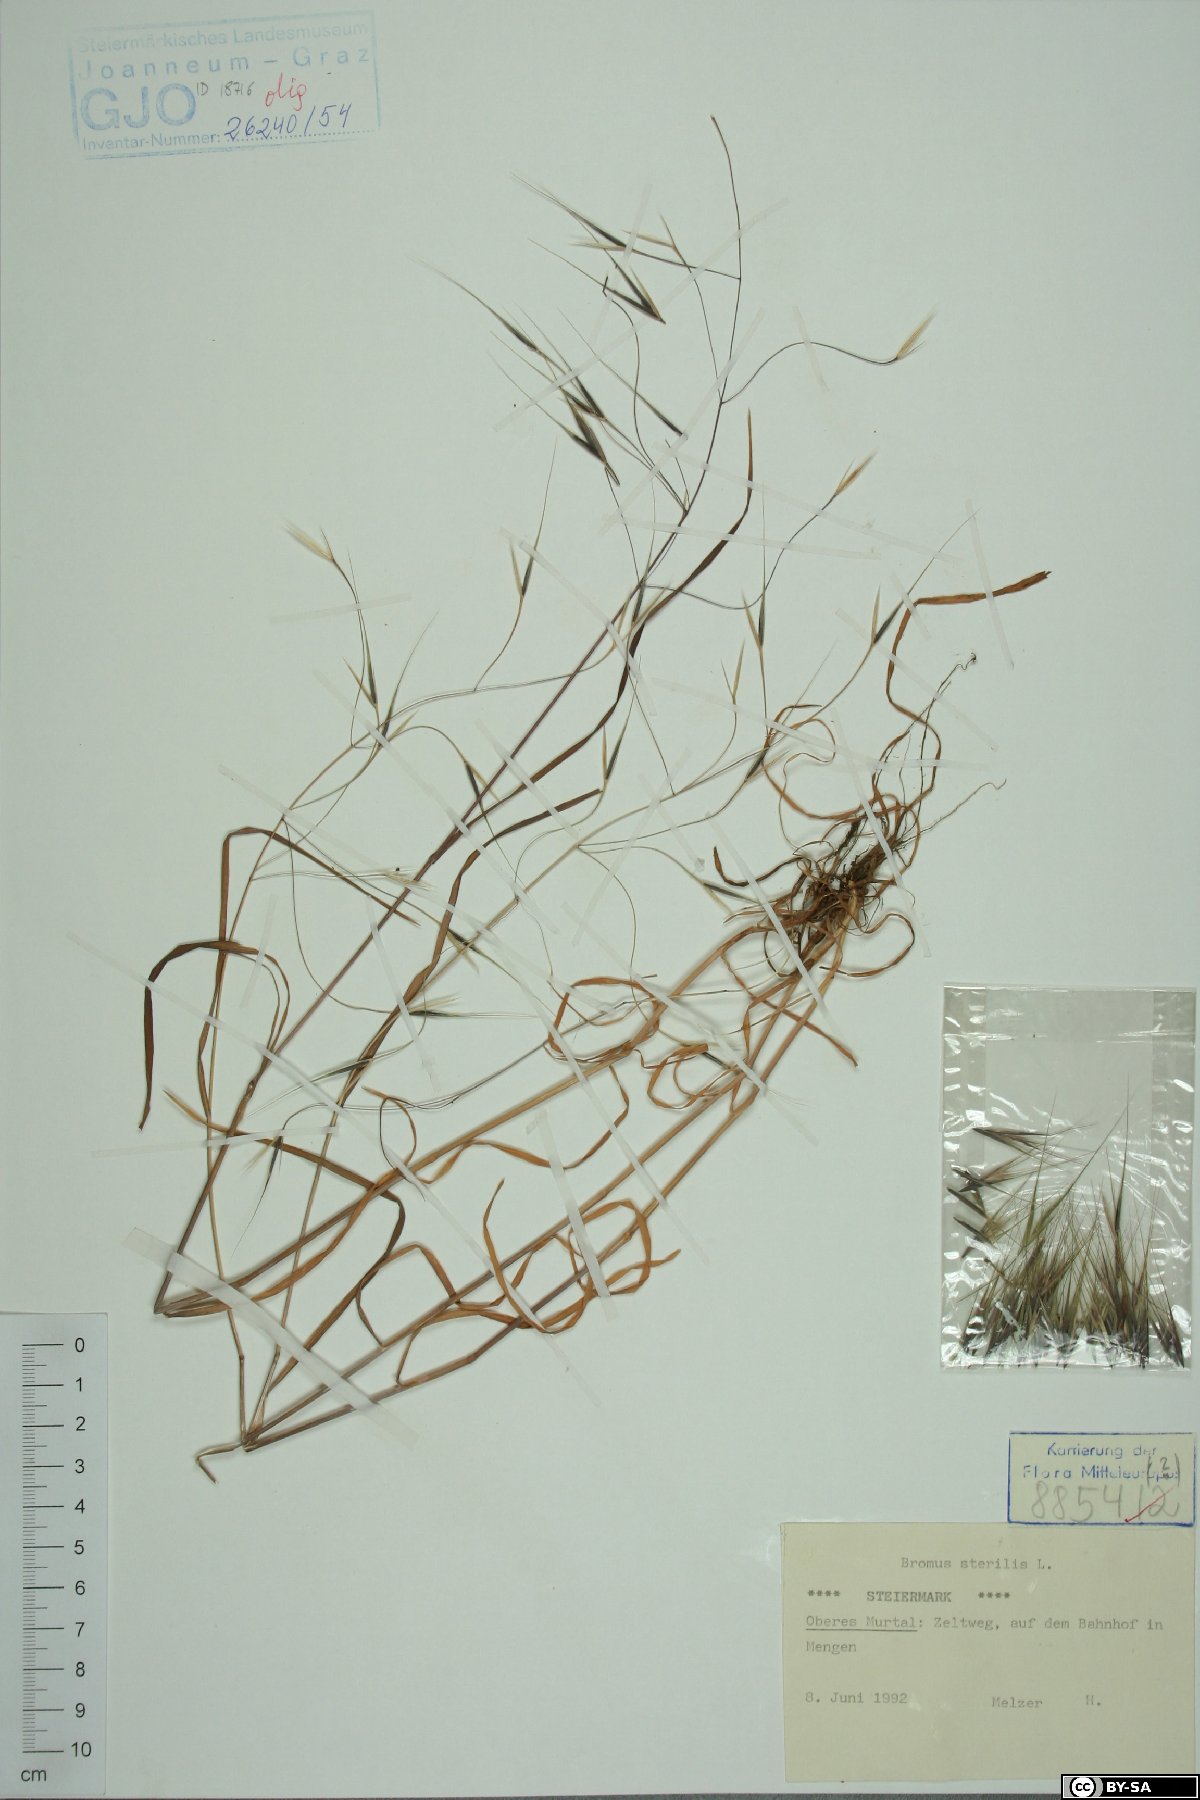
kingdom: Plantae
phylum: Tracheophyta
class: Liliopsida
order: Poales
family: Poaceae
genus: Bromus
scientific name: Bromus sterilis
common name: Poverty brome
